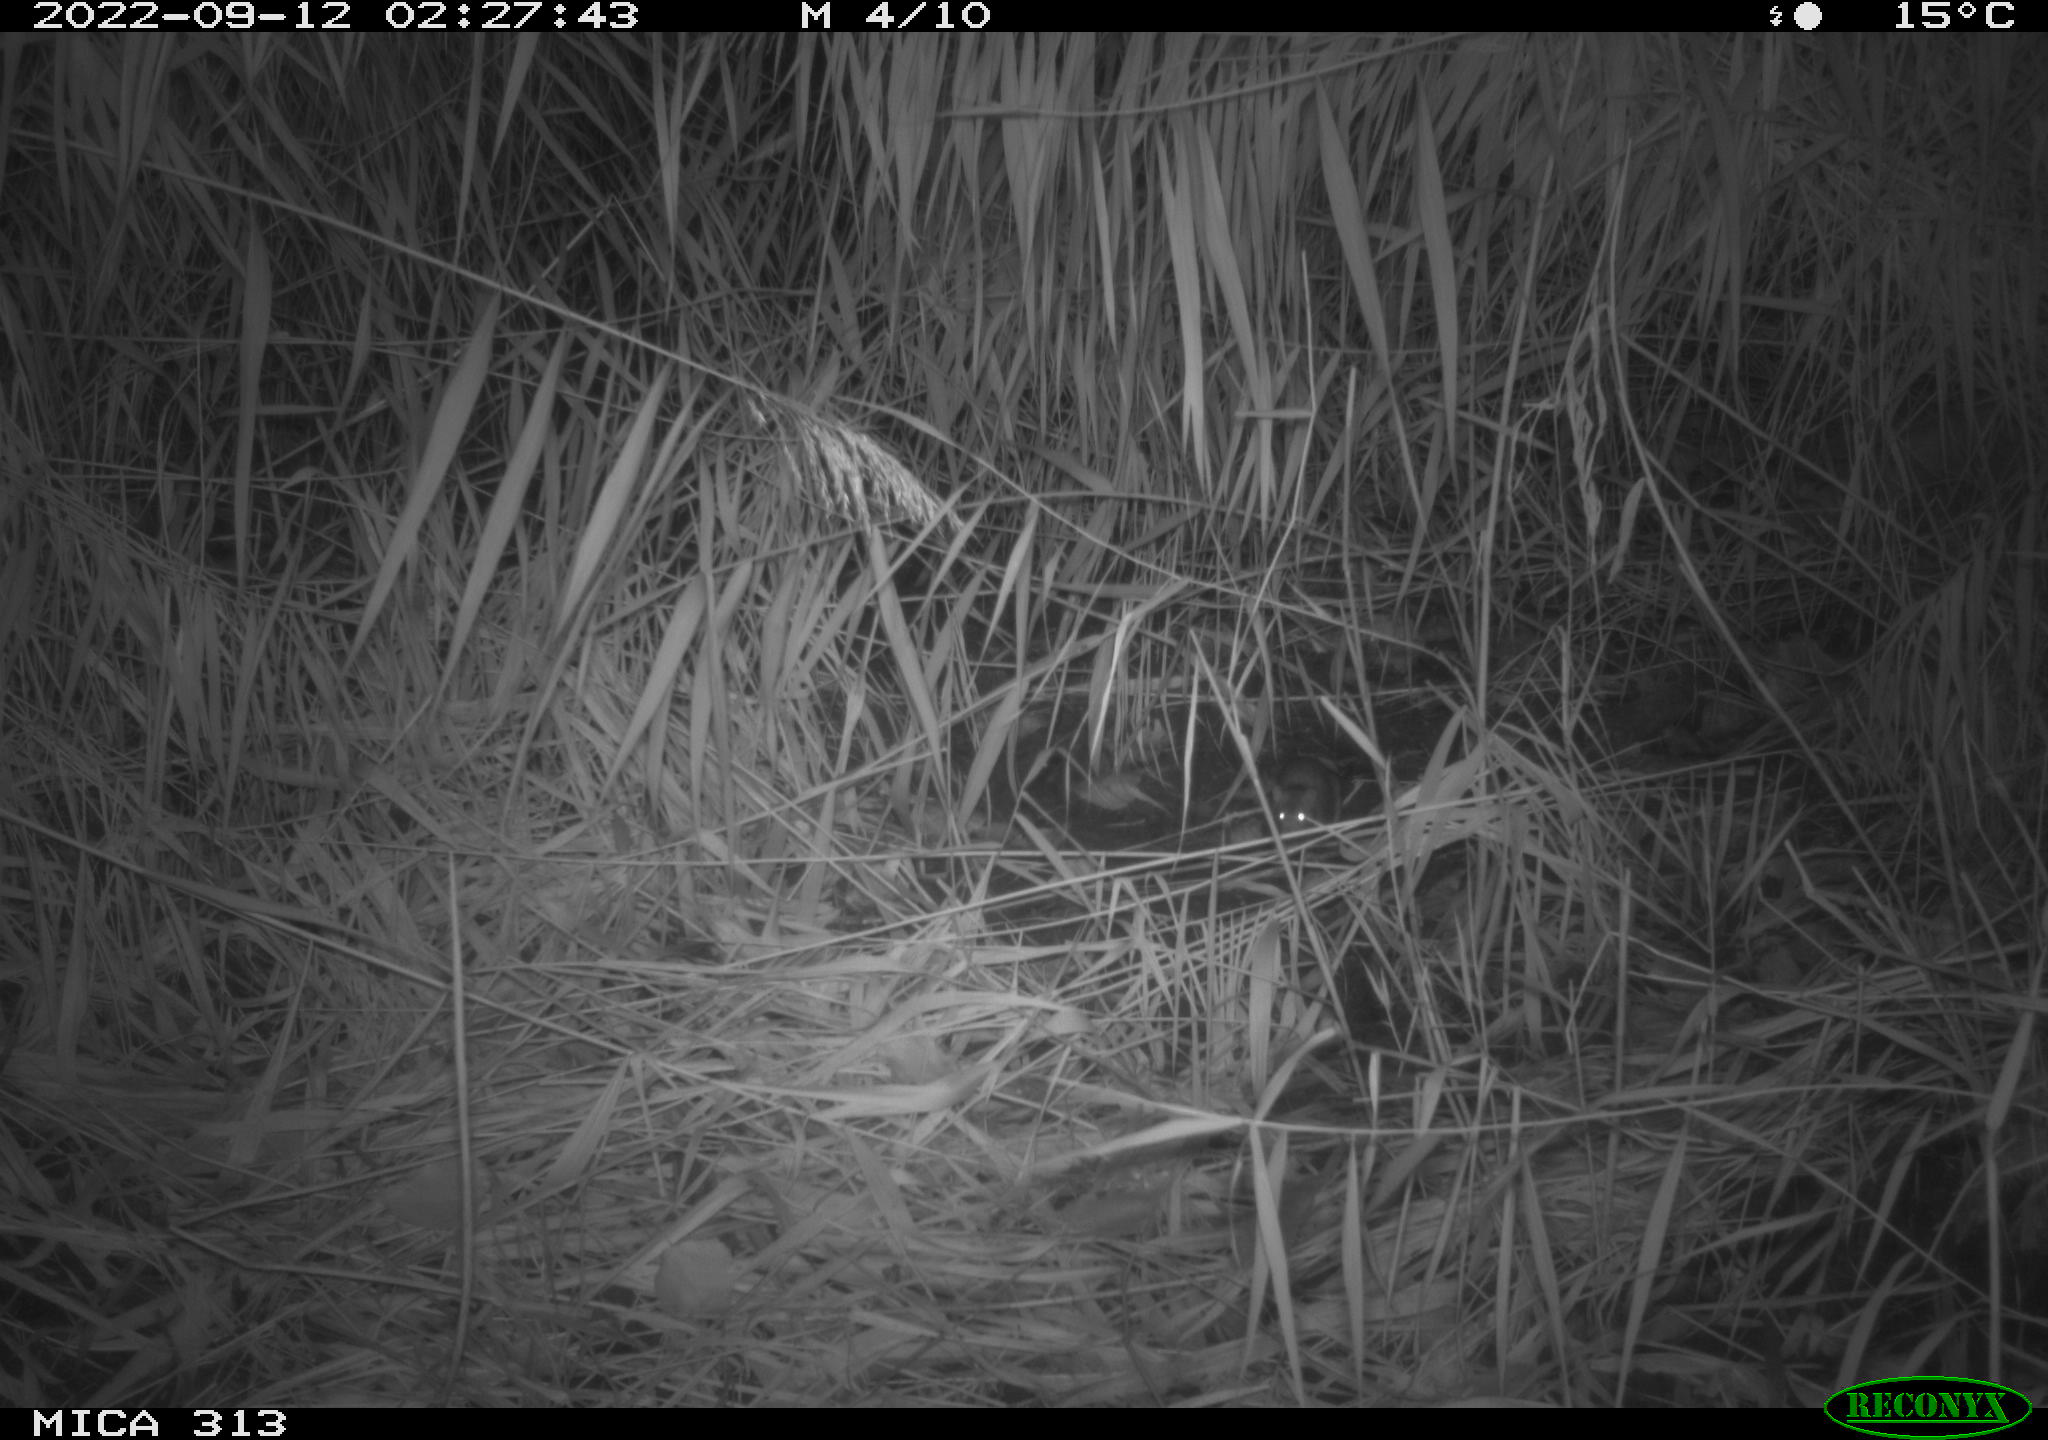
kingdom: Animalia
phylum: Chordata
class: Mammalia
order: Rodentia
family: Muridae
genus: Rattus
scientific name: Rattus norvegicus
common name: Brown rat
